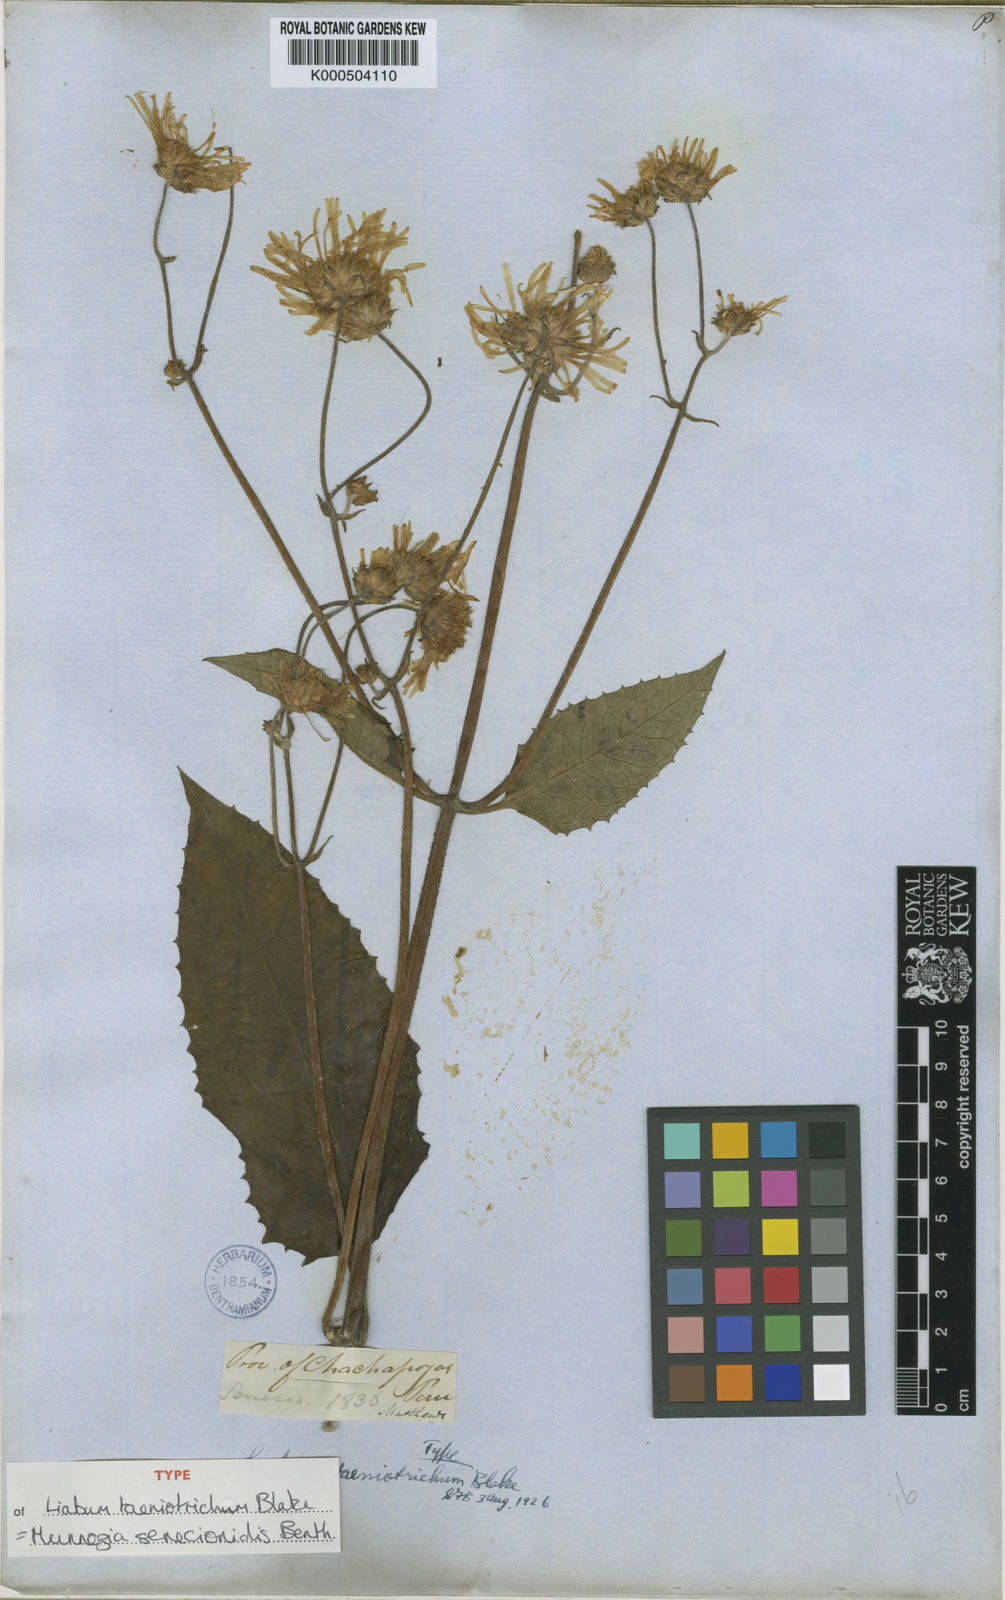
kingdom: Plantae
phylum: Tracheophyta
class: Magnoliopsida
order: Asterales
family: Asteraceae
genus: Munnozia
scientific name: Munnozia senecionidis
